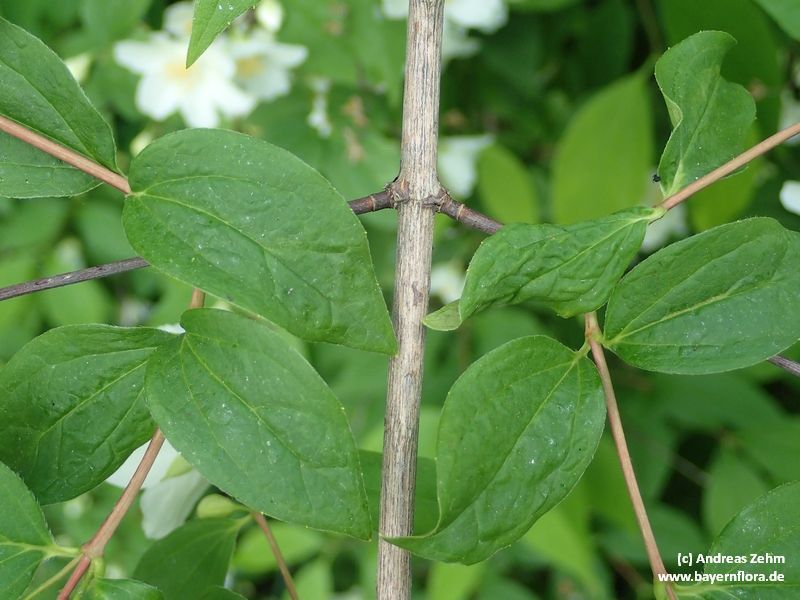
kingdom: Plantae
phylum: Tracheophyta
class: Magnoliopsida
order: Cornales
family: Hydrangeaceae
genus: Philadelphus
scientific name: Philadelphus coronarius
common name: Mock orange
